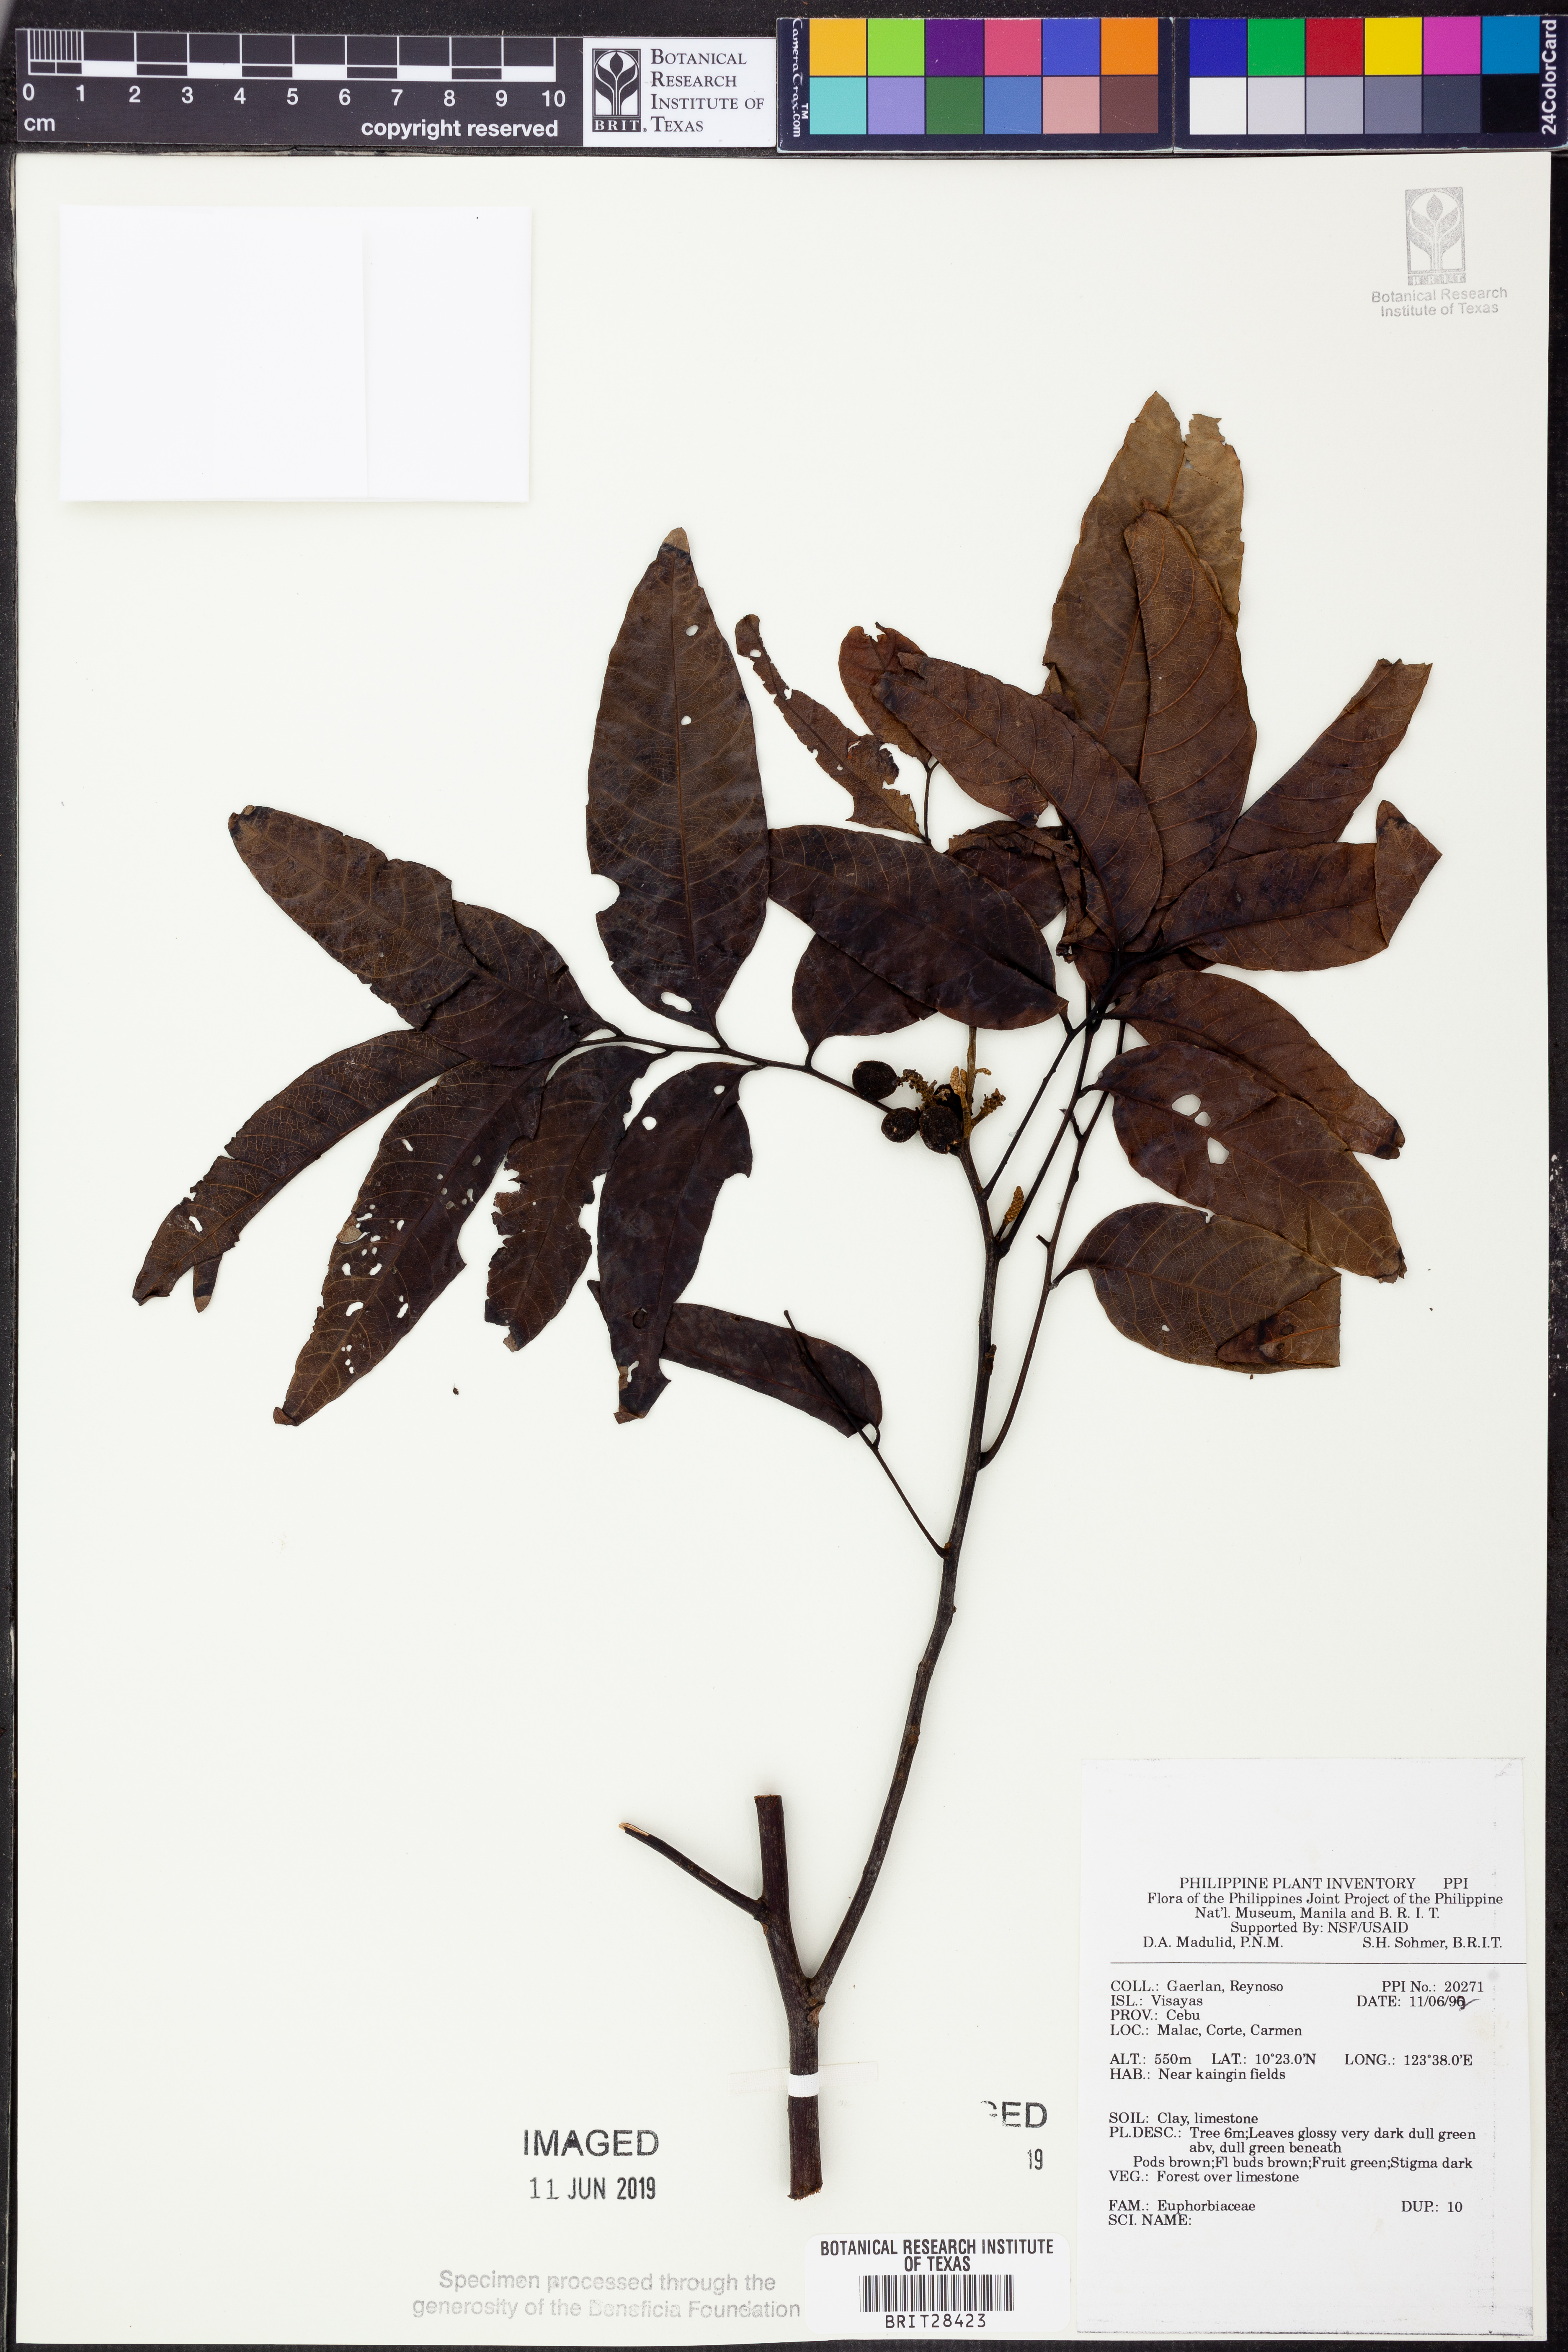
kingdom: Plantae
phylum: Tracheophyta
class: Magnoliopsida
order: Malpighiales
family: Euphorbiaceae
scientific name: Euphorbiaceae
